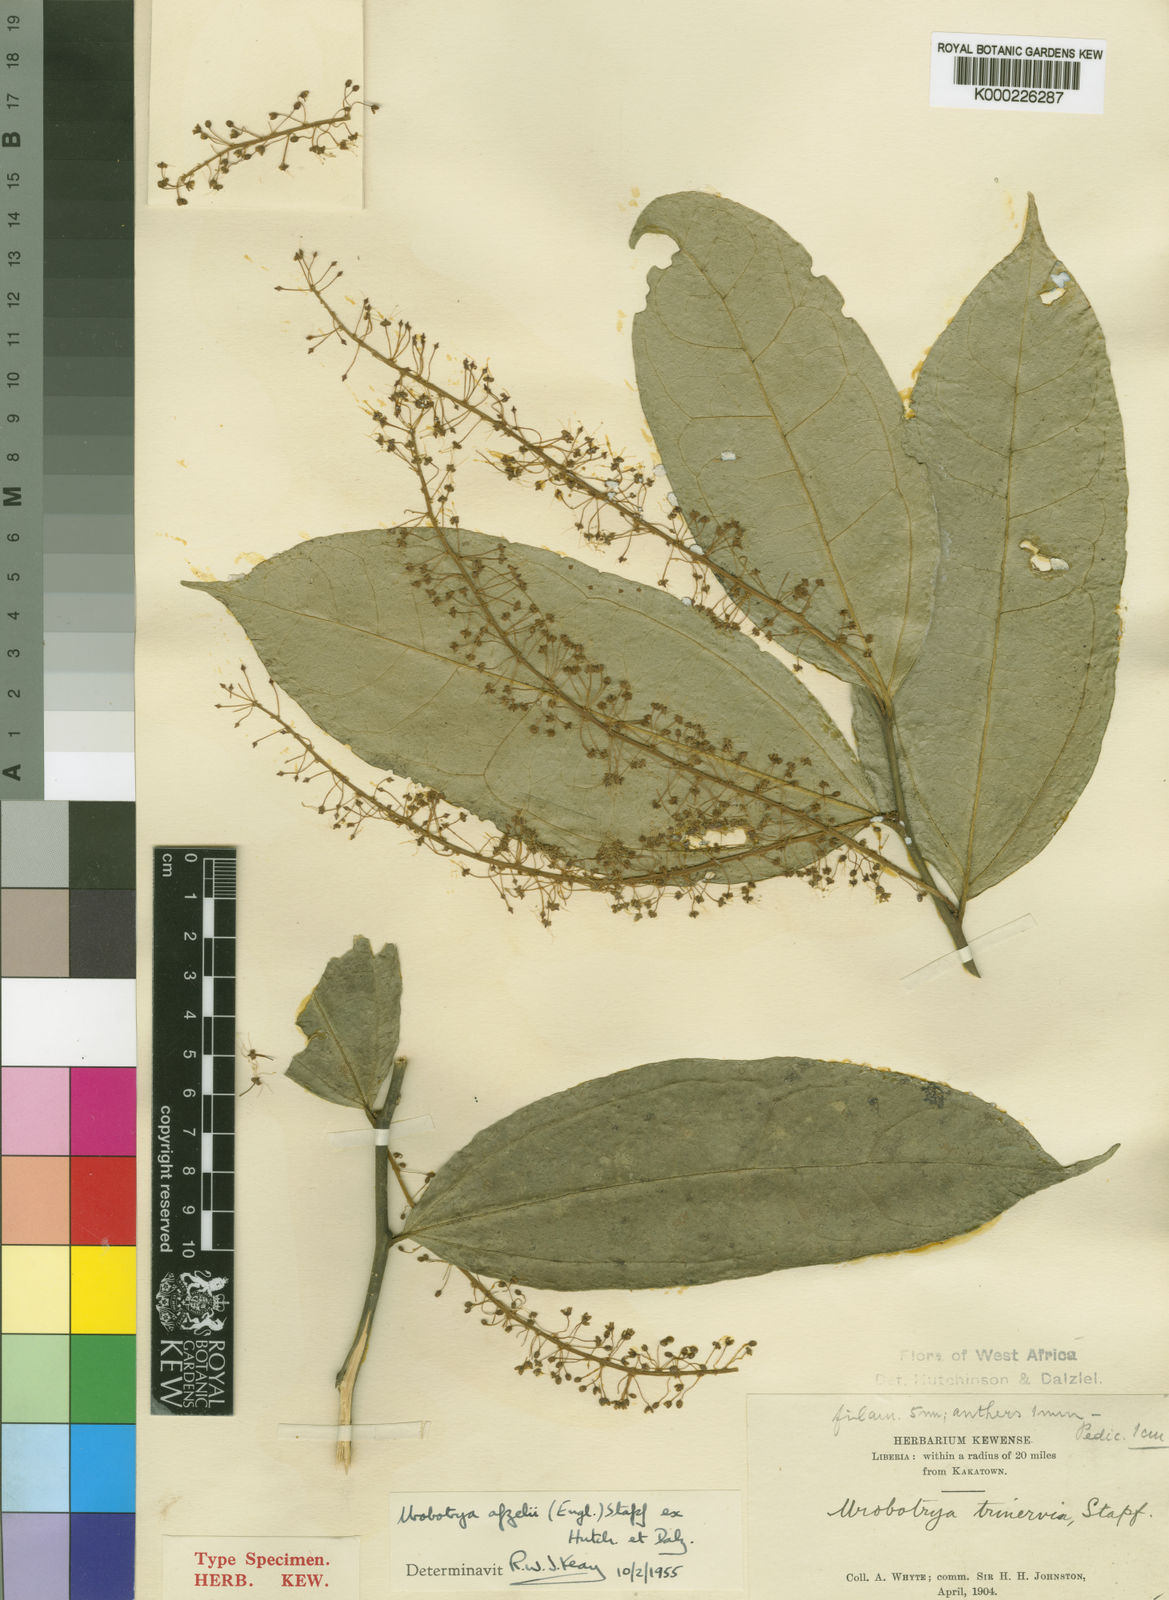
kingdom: Plantae
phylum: Tracheophyta
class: Magnoliopsida
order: Santalales
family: Opiliaceae
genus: Urobotrya
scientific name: Urobotrya congolana
